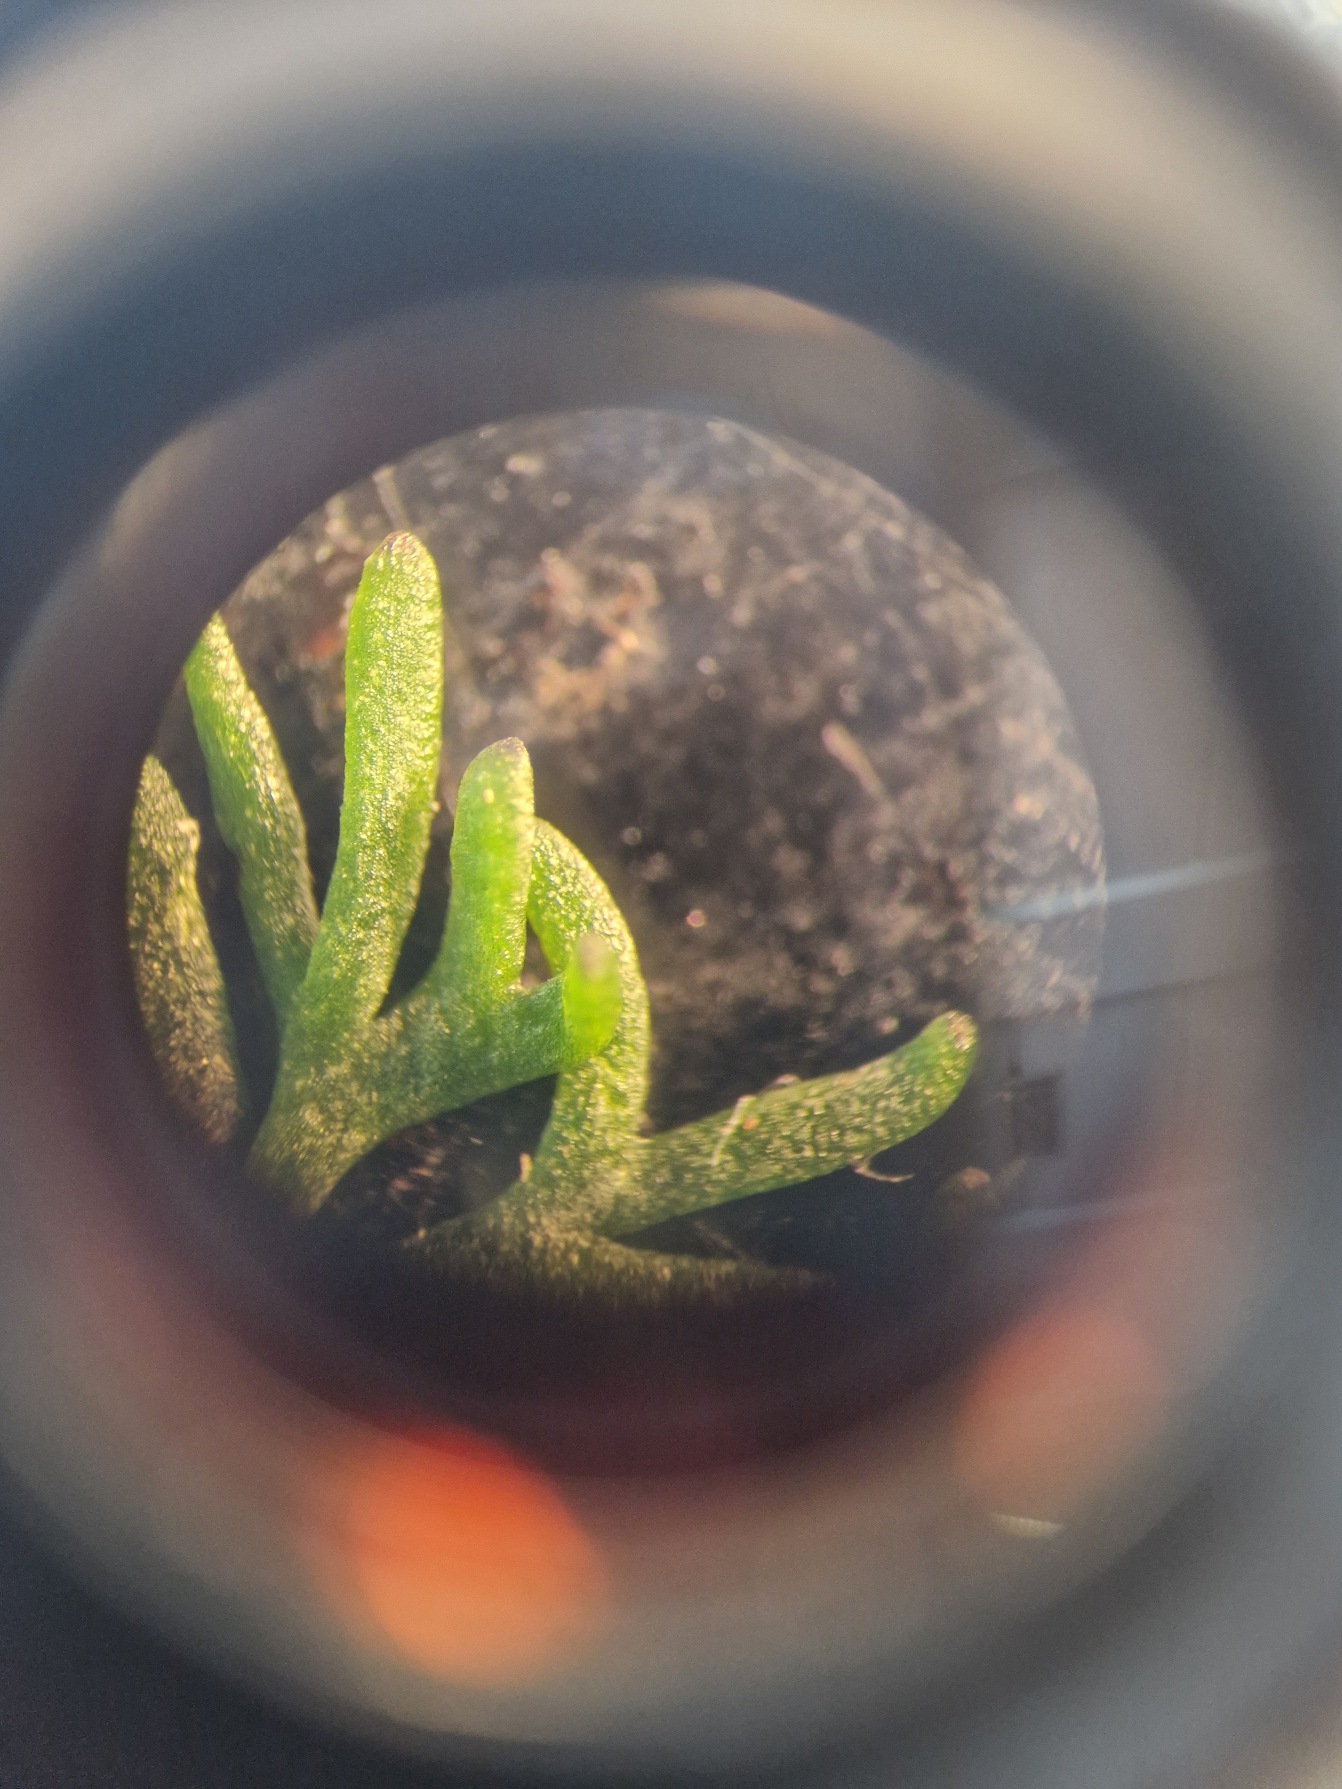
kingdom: Plantae
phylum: Tracheophyta
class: Magnoliopsida
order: Ranunculales
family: Ranunculaceae
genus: Ranunculus
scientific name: Ranunculus aquatilis
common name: Almindelig vandranunkel
